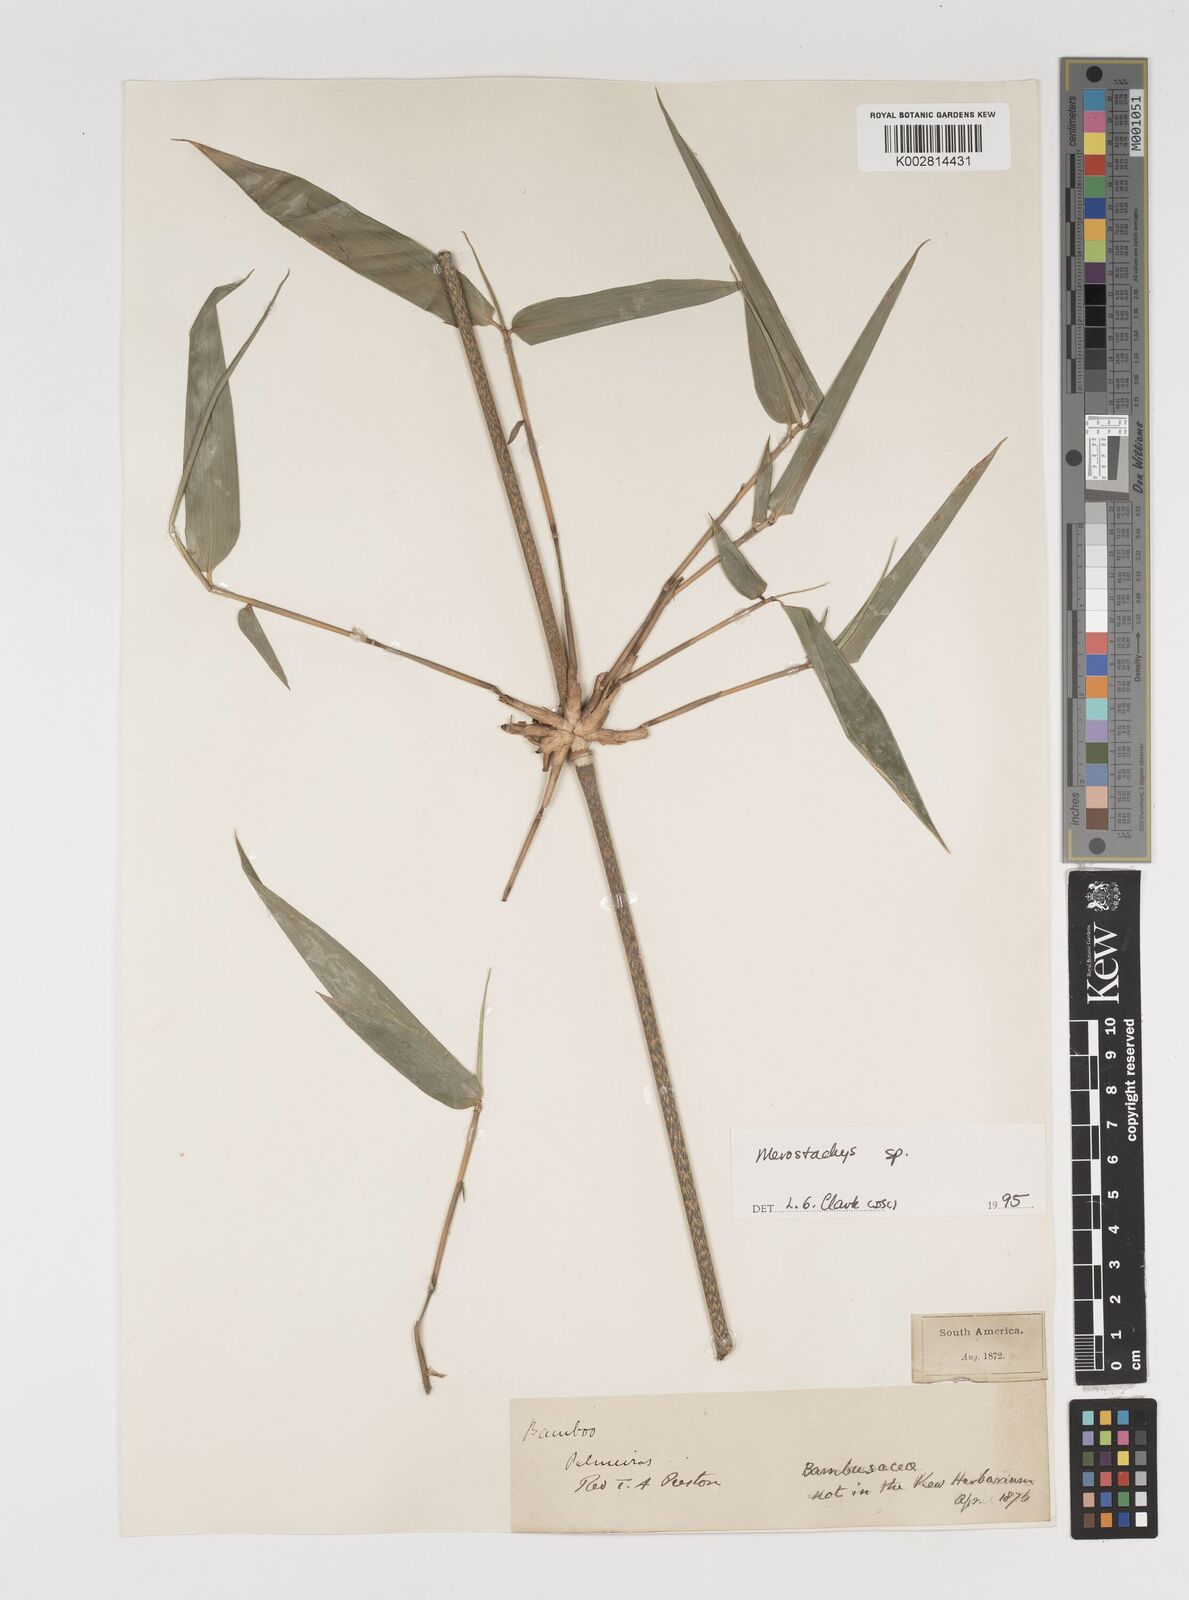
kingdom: Plantae
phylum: Tracheophyta
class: Liliopsida
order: Poales
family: Poaceae
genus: Merostachys
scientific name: Merostachys
